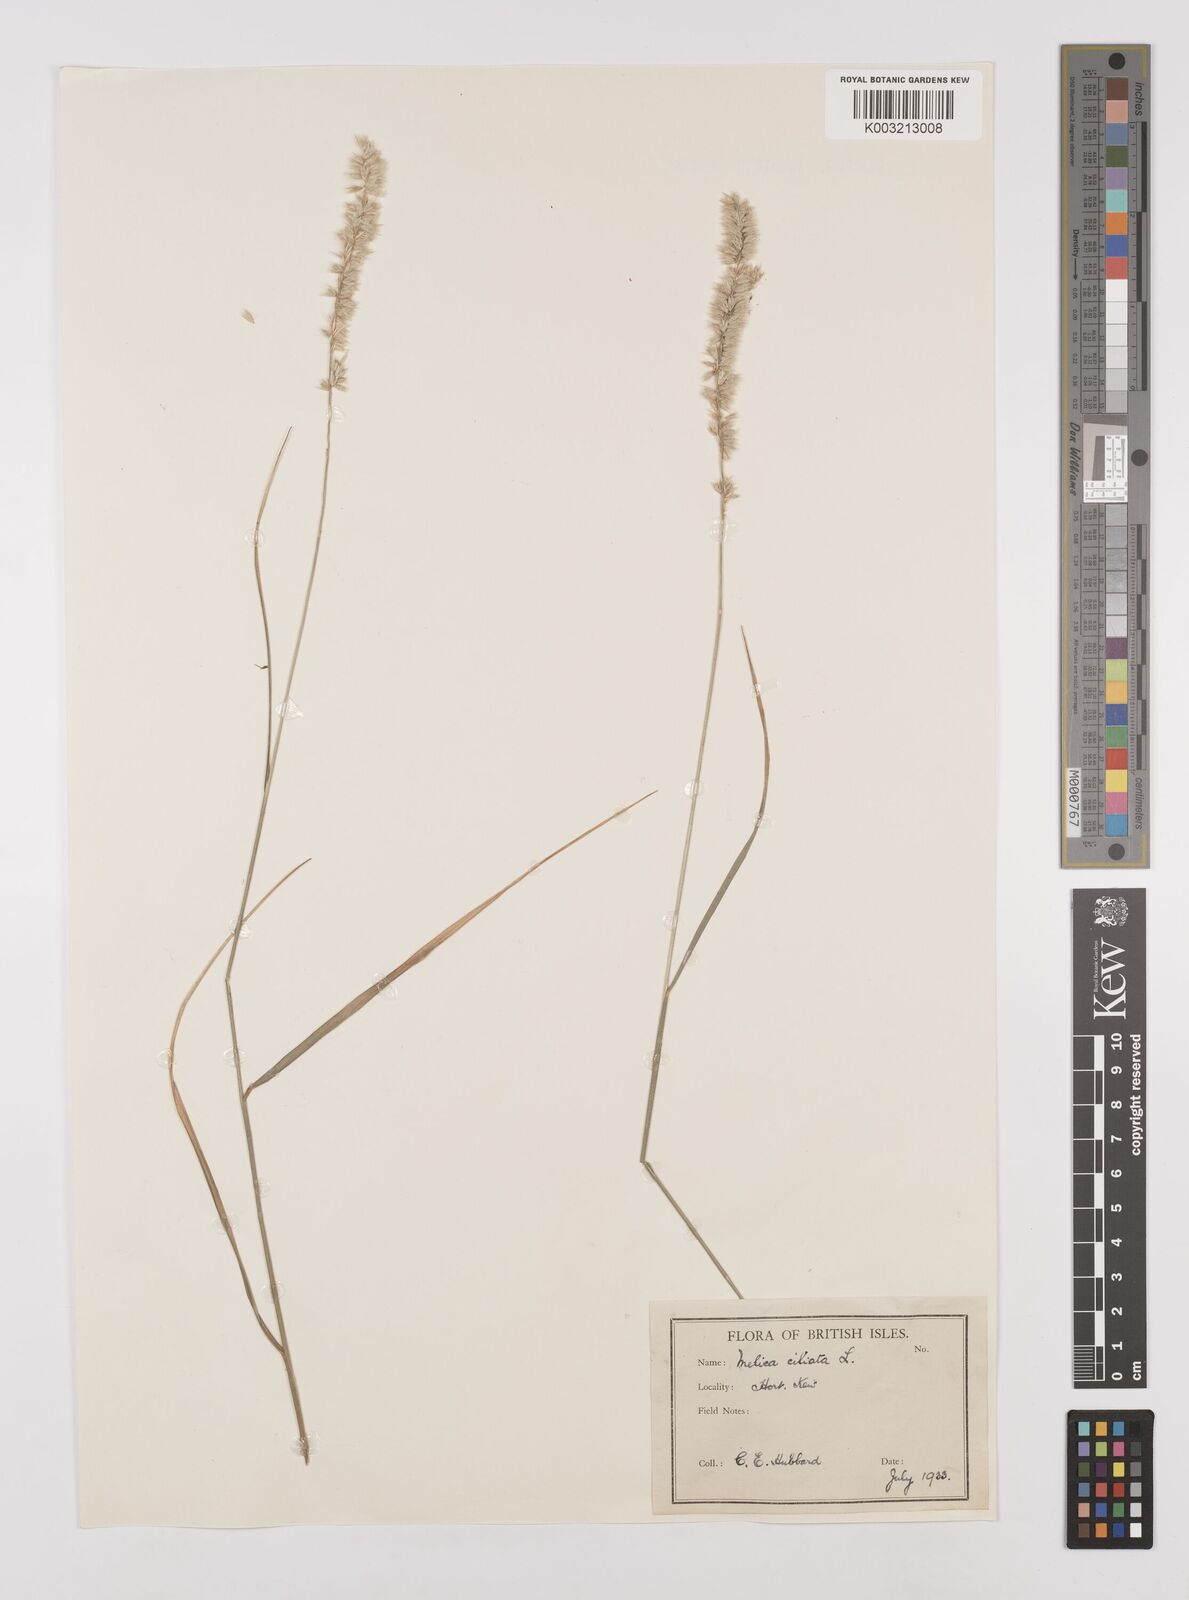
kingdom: Plantae
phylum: Tracheophyta
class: Liliopsida
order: Poales
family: Poaceae
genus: Melica
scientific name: Melica ciliata
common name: Hairy melicgrass
